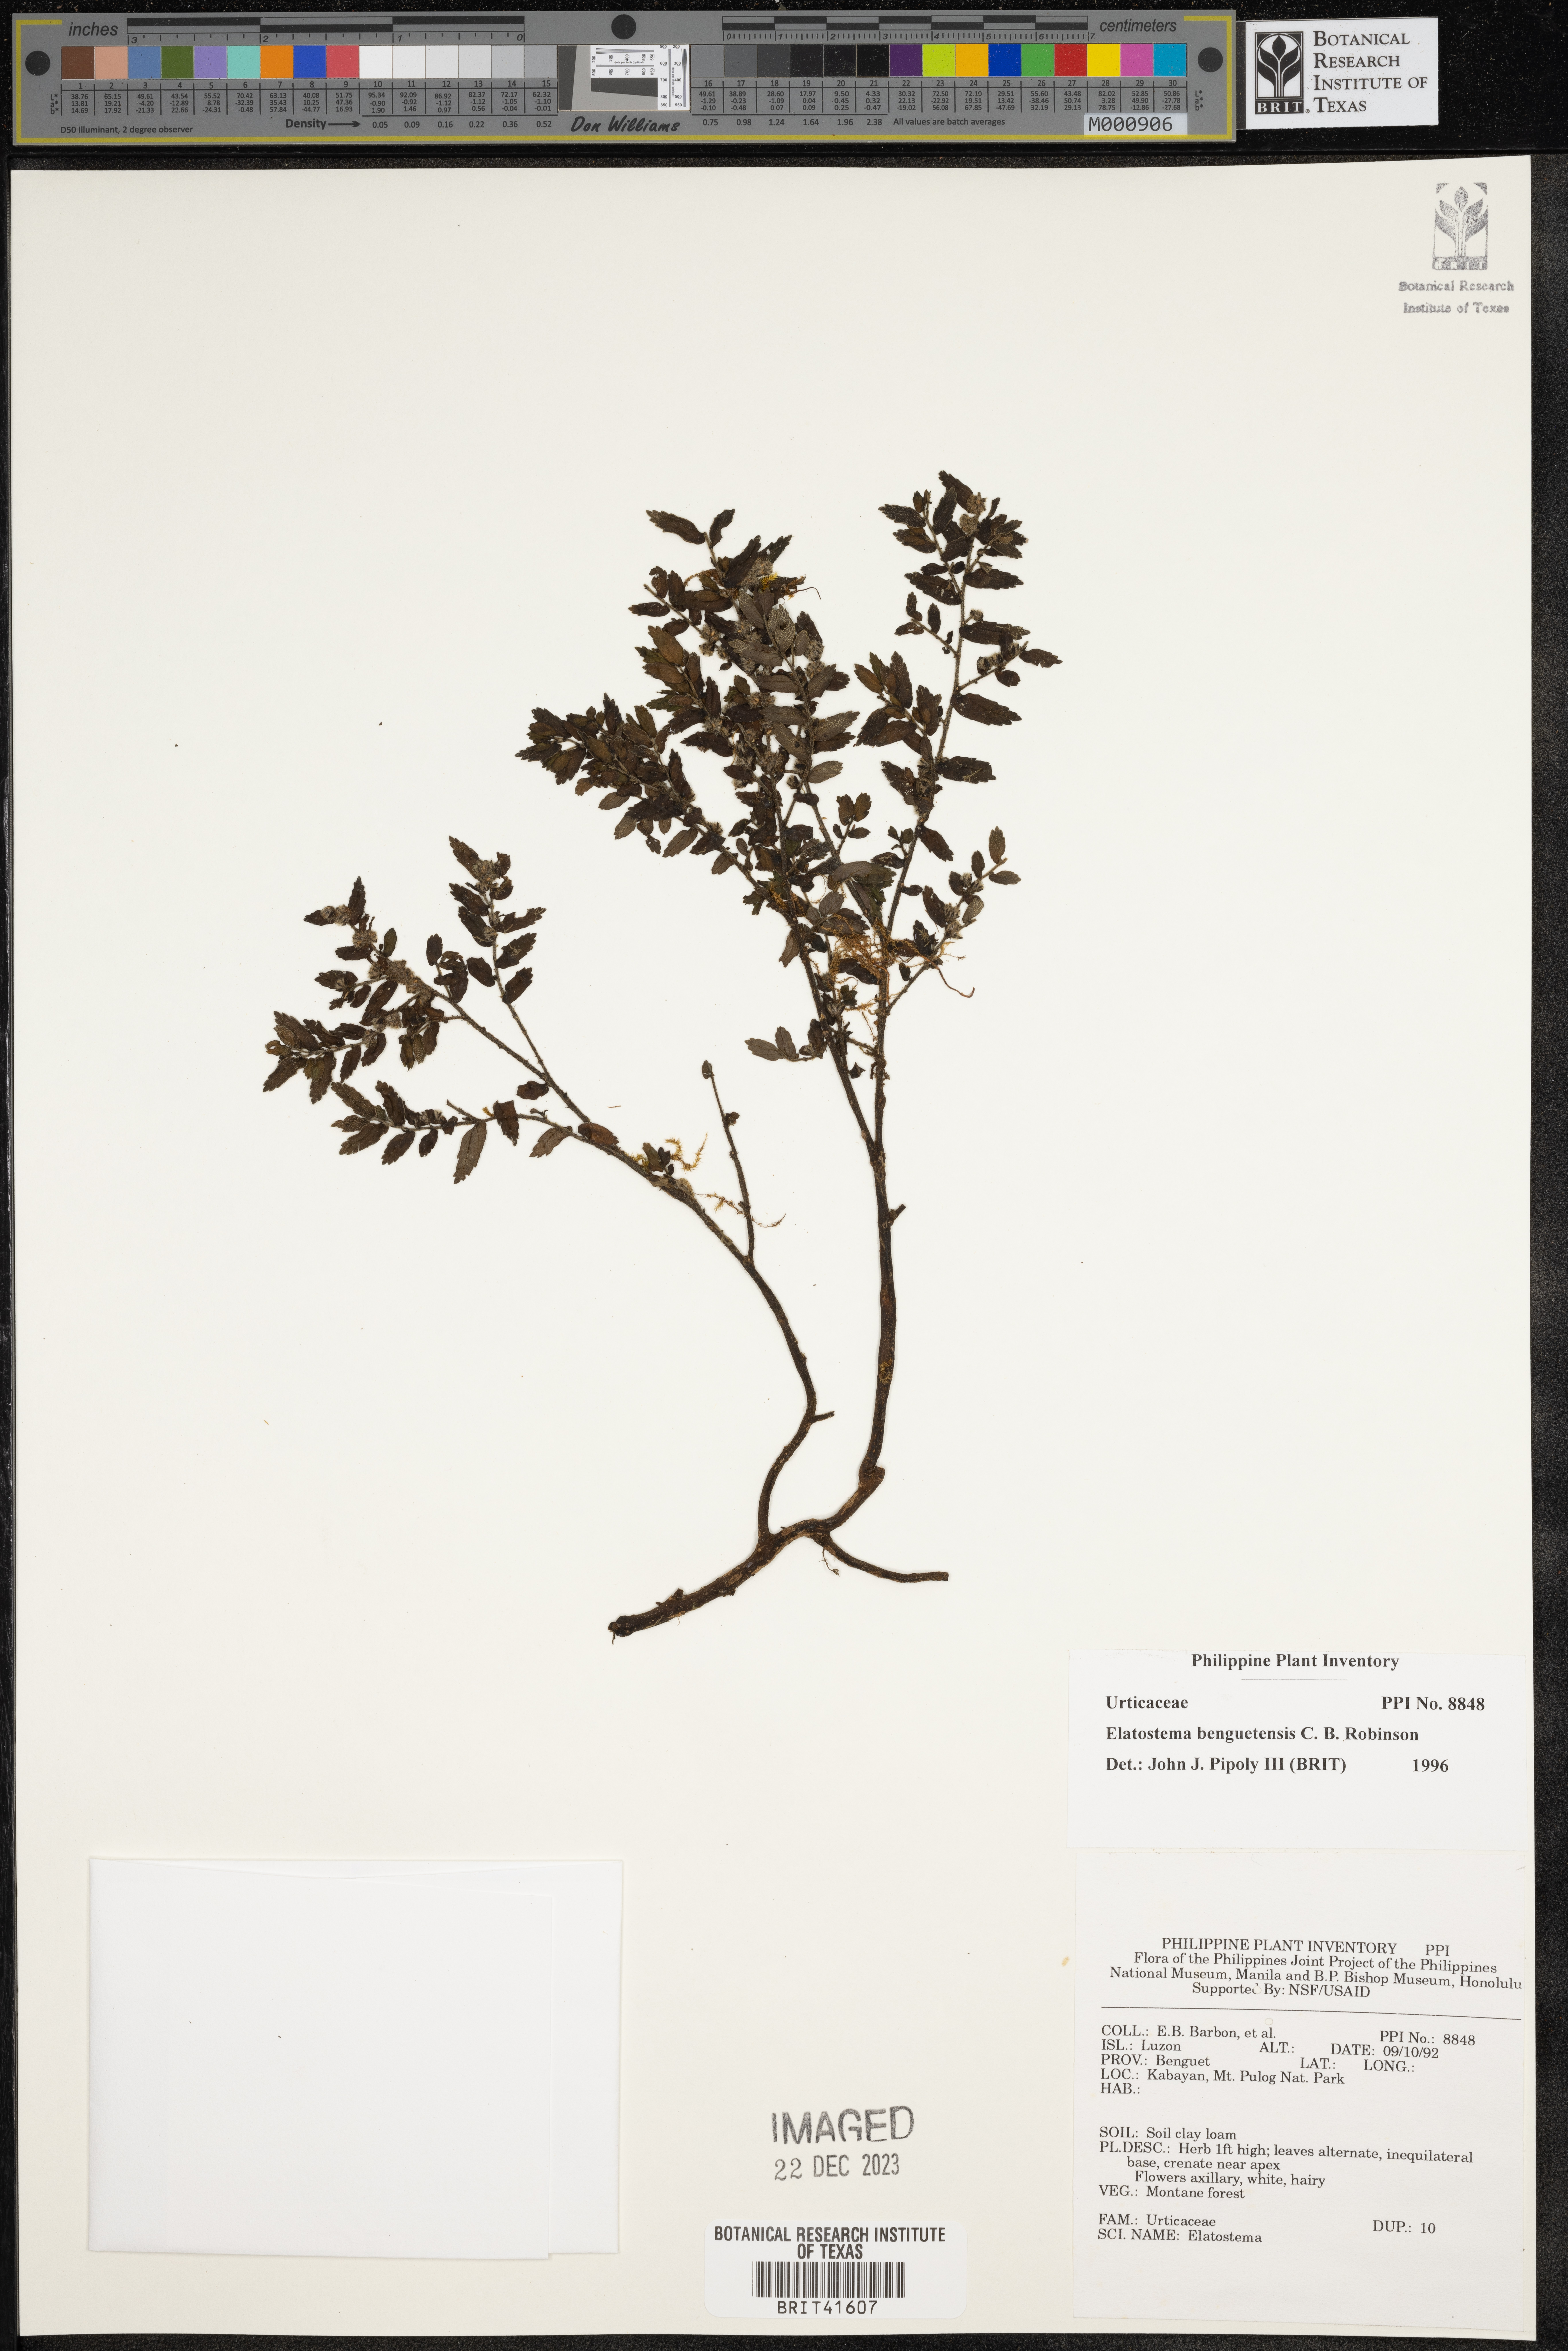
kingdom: Plantae
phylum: Tracheophyta
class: Magnoliopsida
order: Rosales
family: Urticaceae
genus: Elatostema
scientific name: Elatostema benguetense
